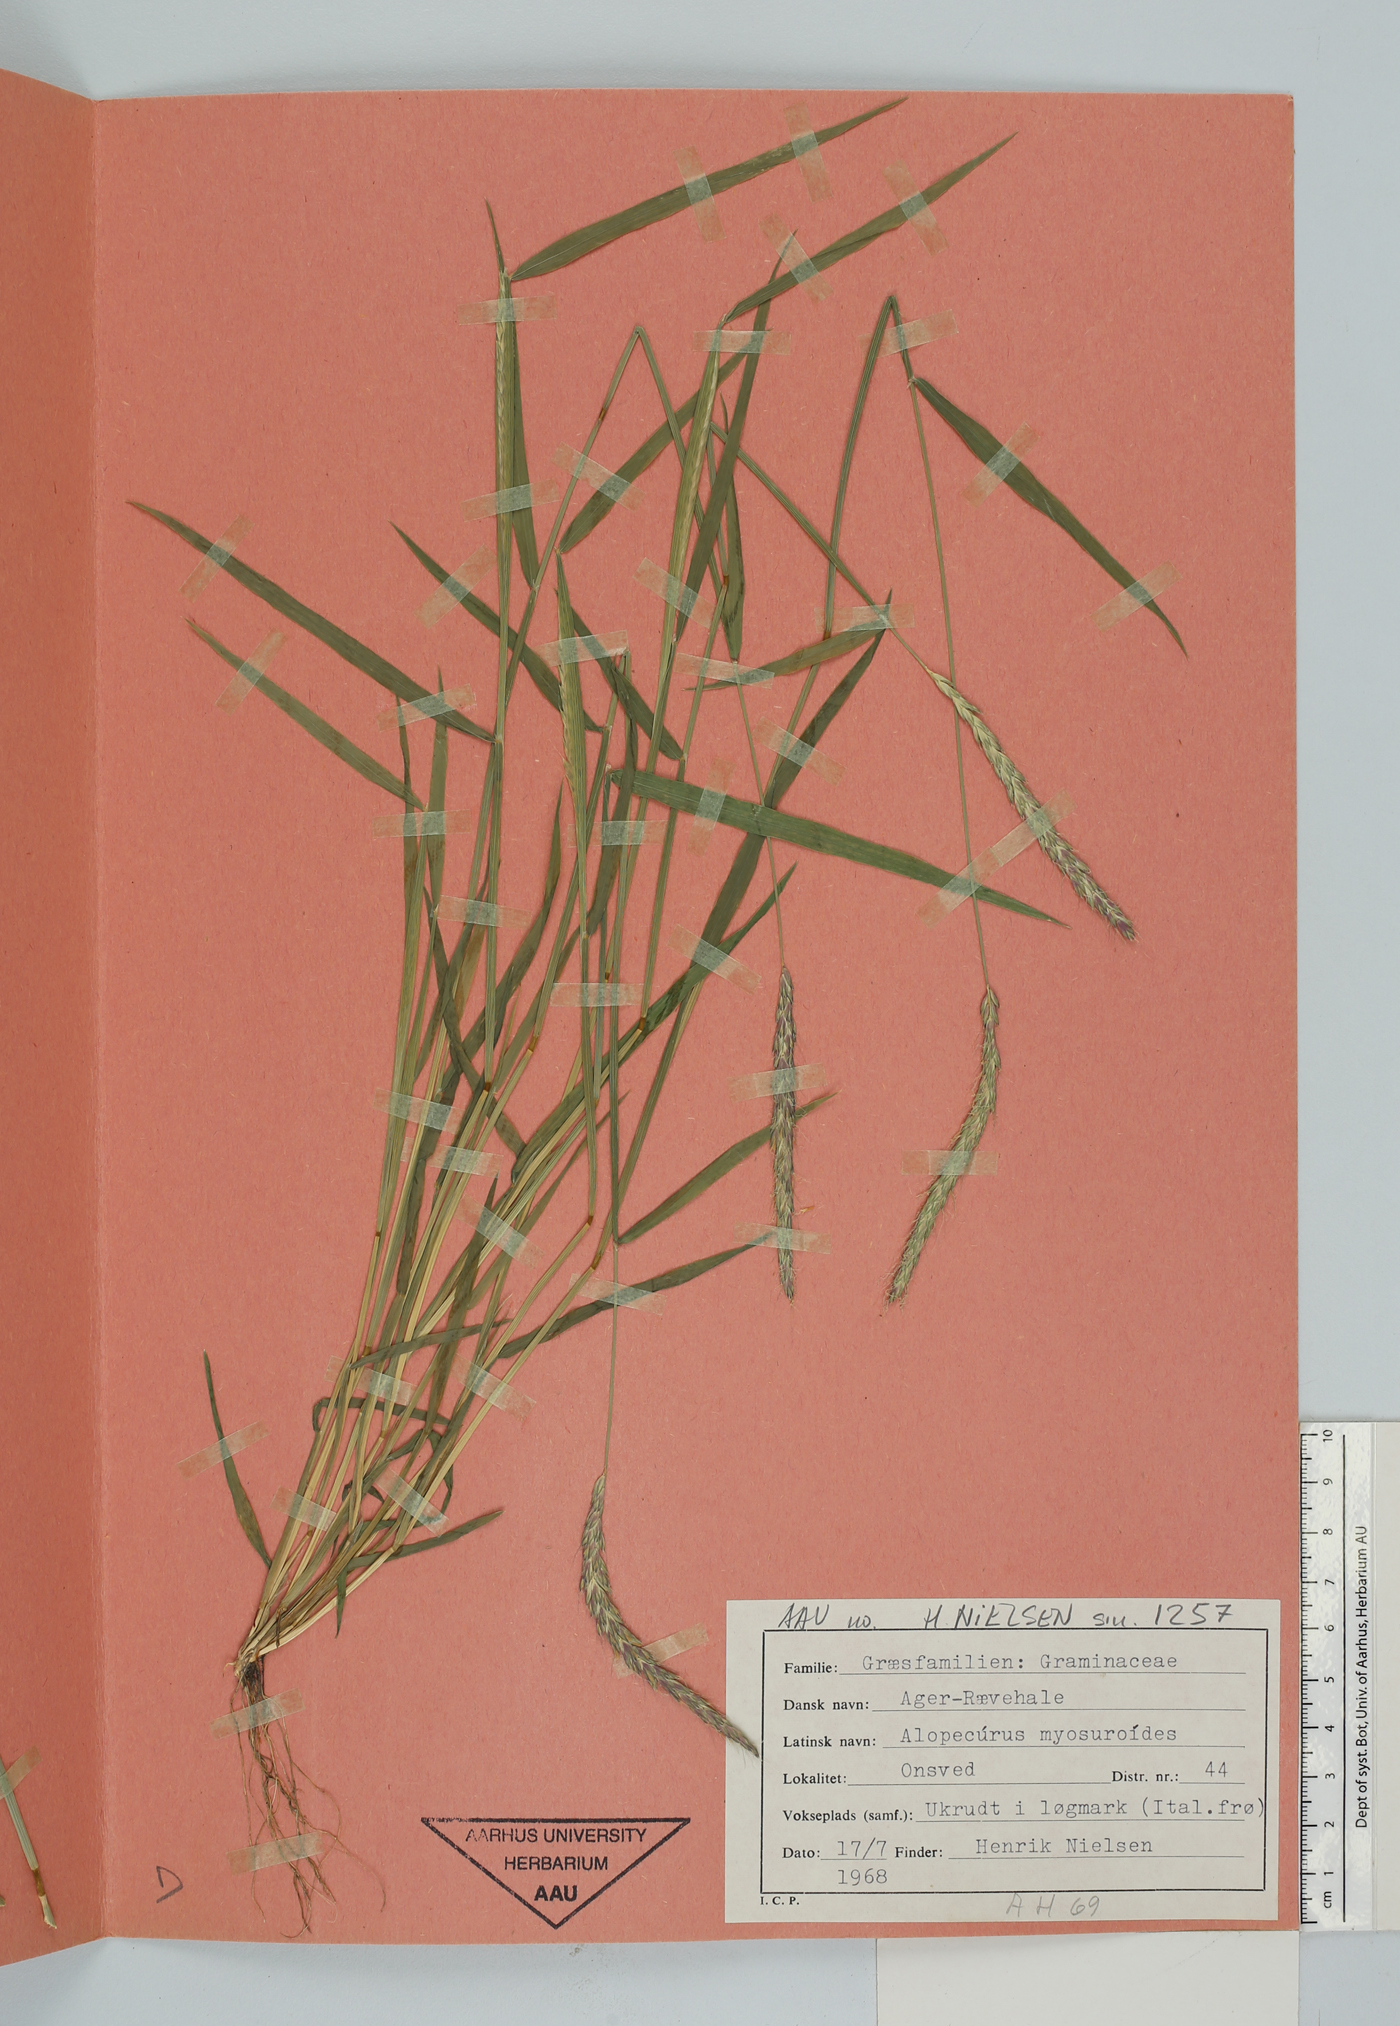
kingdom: Plantae
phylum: Tracheophyta
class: Liliopsida
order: Poales
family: Poaceae
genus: Alopecurus
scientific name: Alopecurus myosuroides
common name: Black-grass
